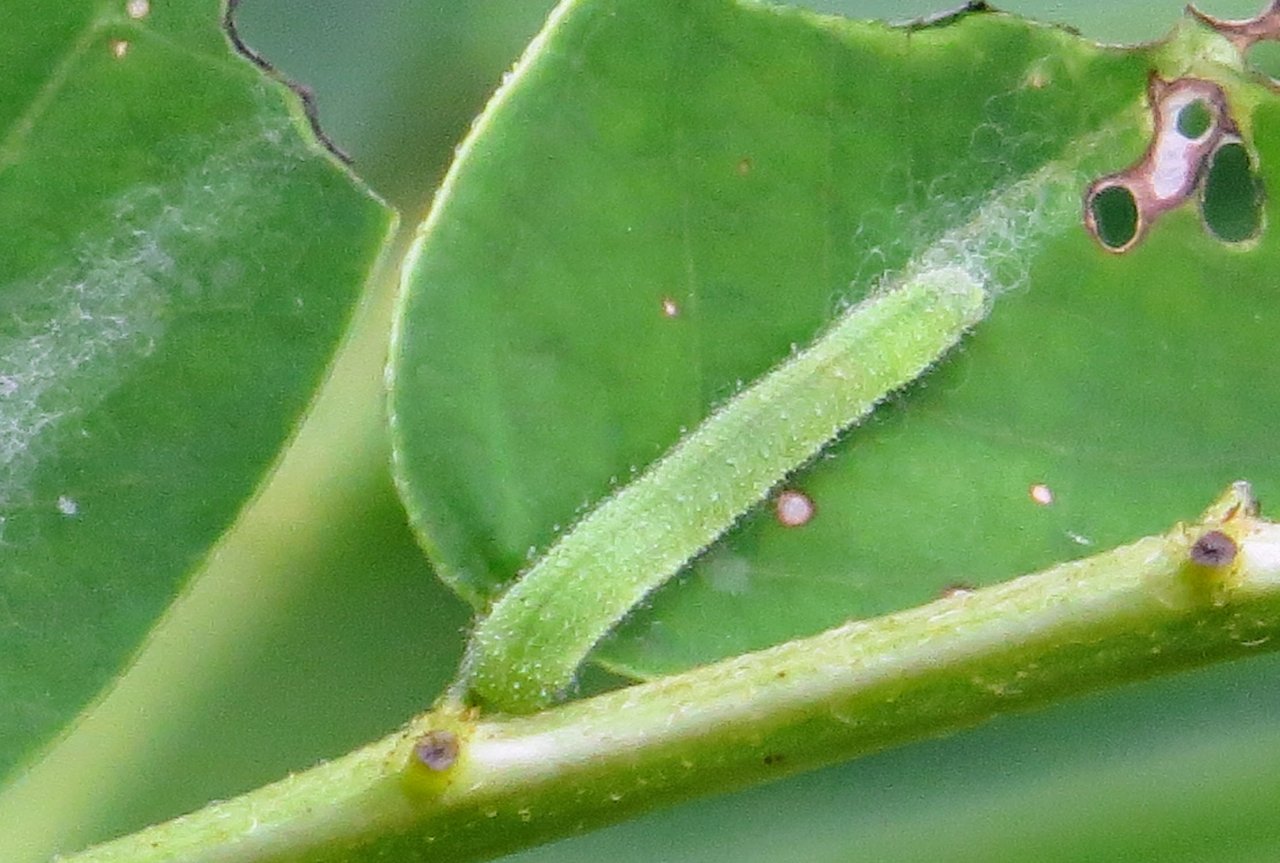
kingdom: Animalia
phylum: Arthropoda
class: Insecta
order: Lepidoptera
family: Pieridae
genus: Abaeis
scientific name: Abaeis nicippe
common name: Sleepy Orange
